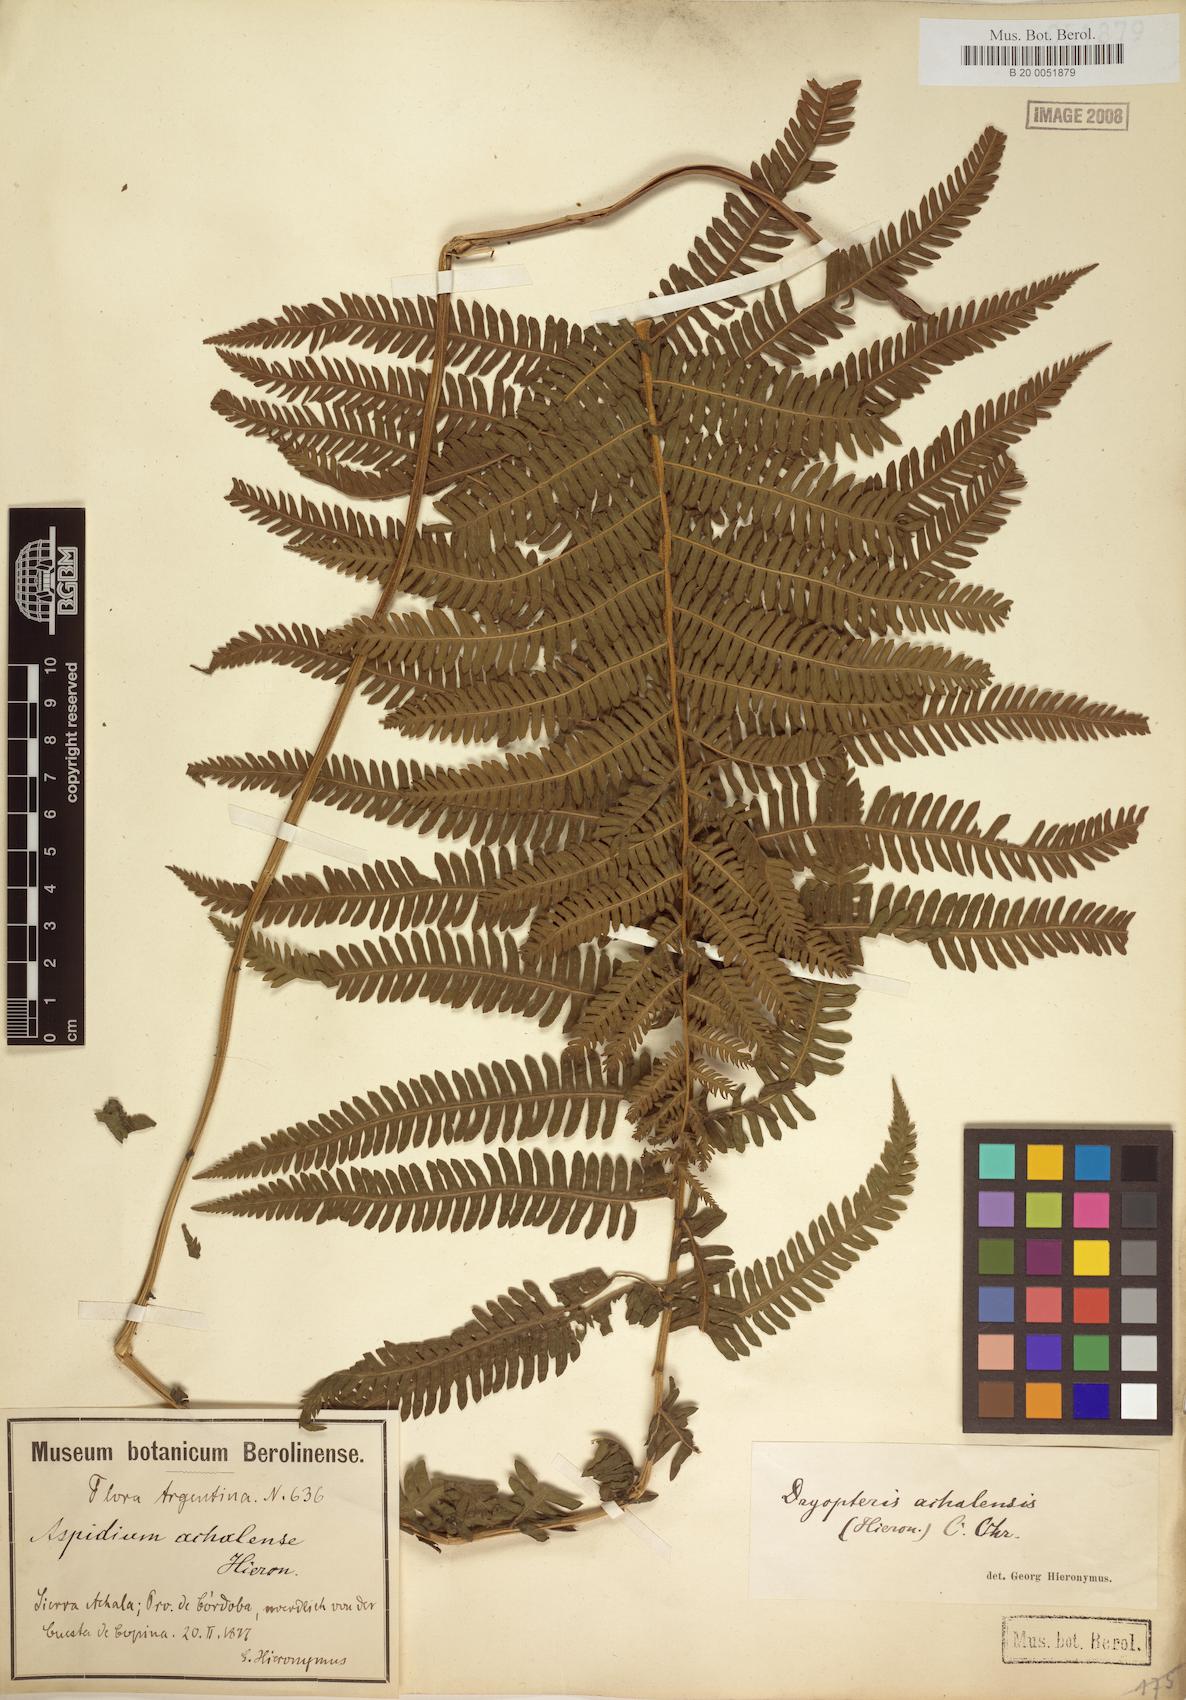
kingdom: Plantae
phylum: Tracheophyta
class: Polypodiopsida
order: Polypodiales
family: Thelypteridaceae
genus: Amauropelta
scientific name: Amauropelta achalensis
